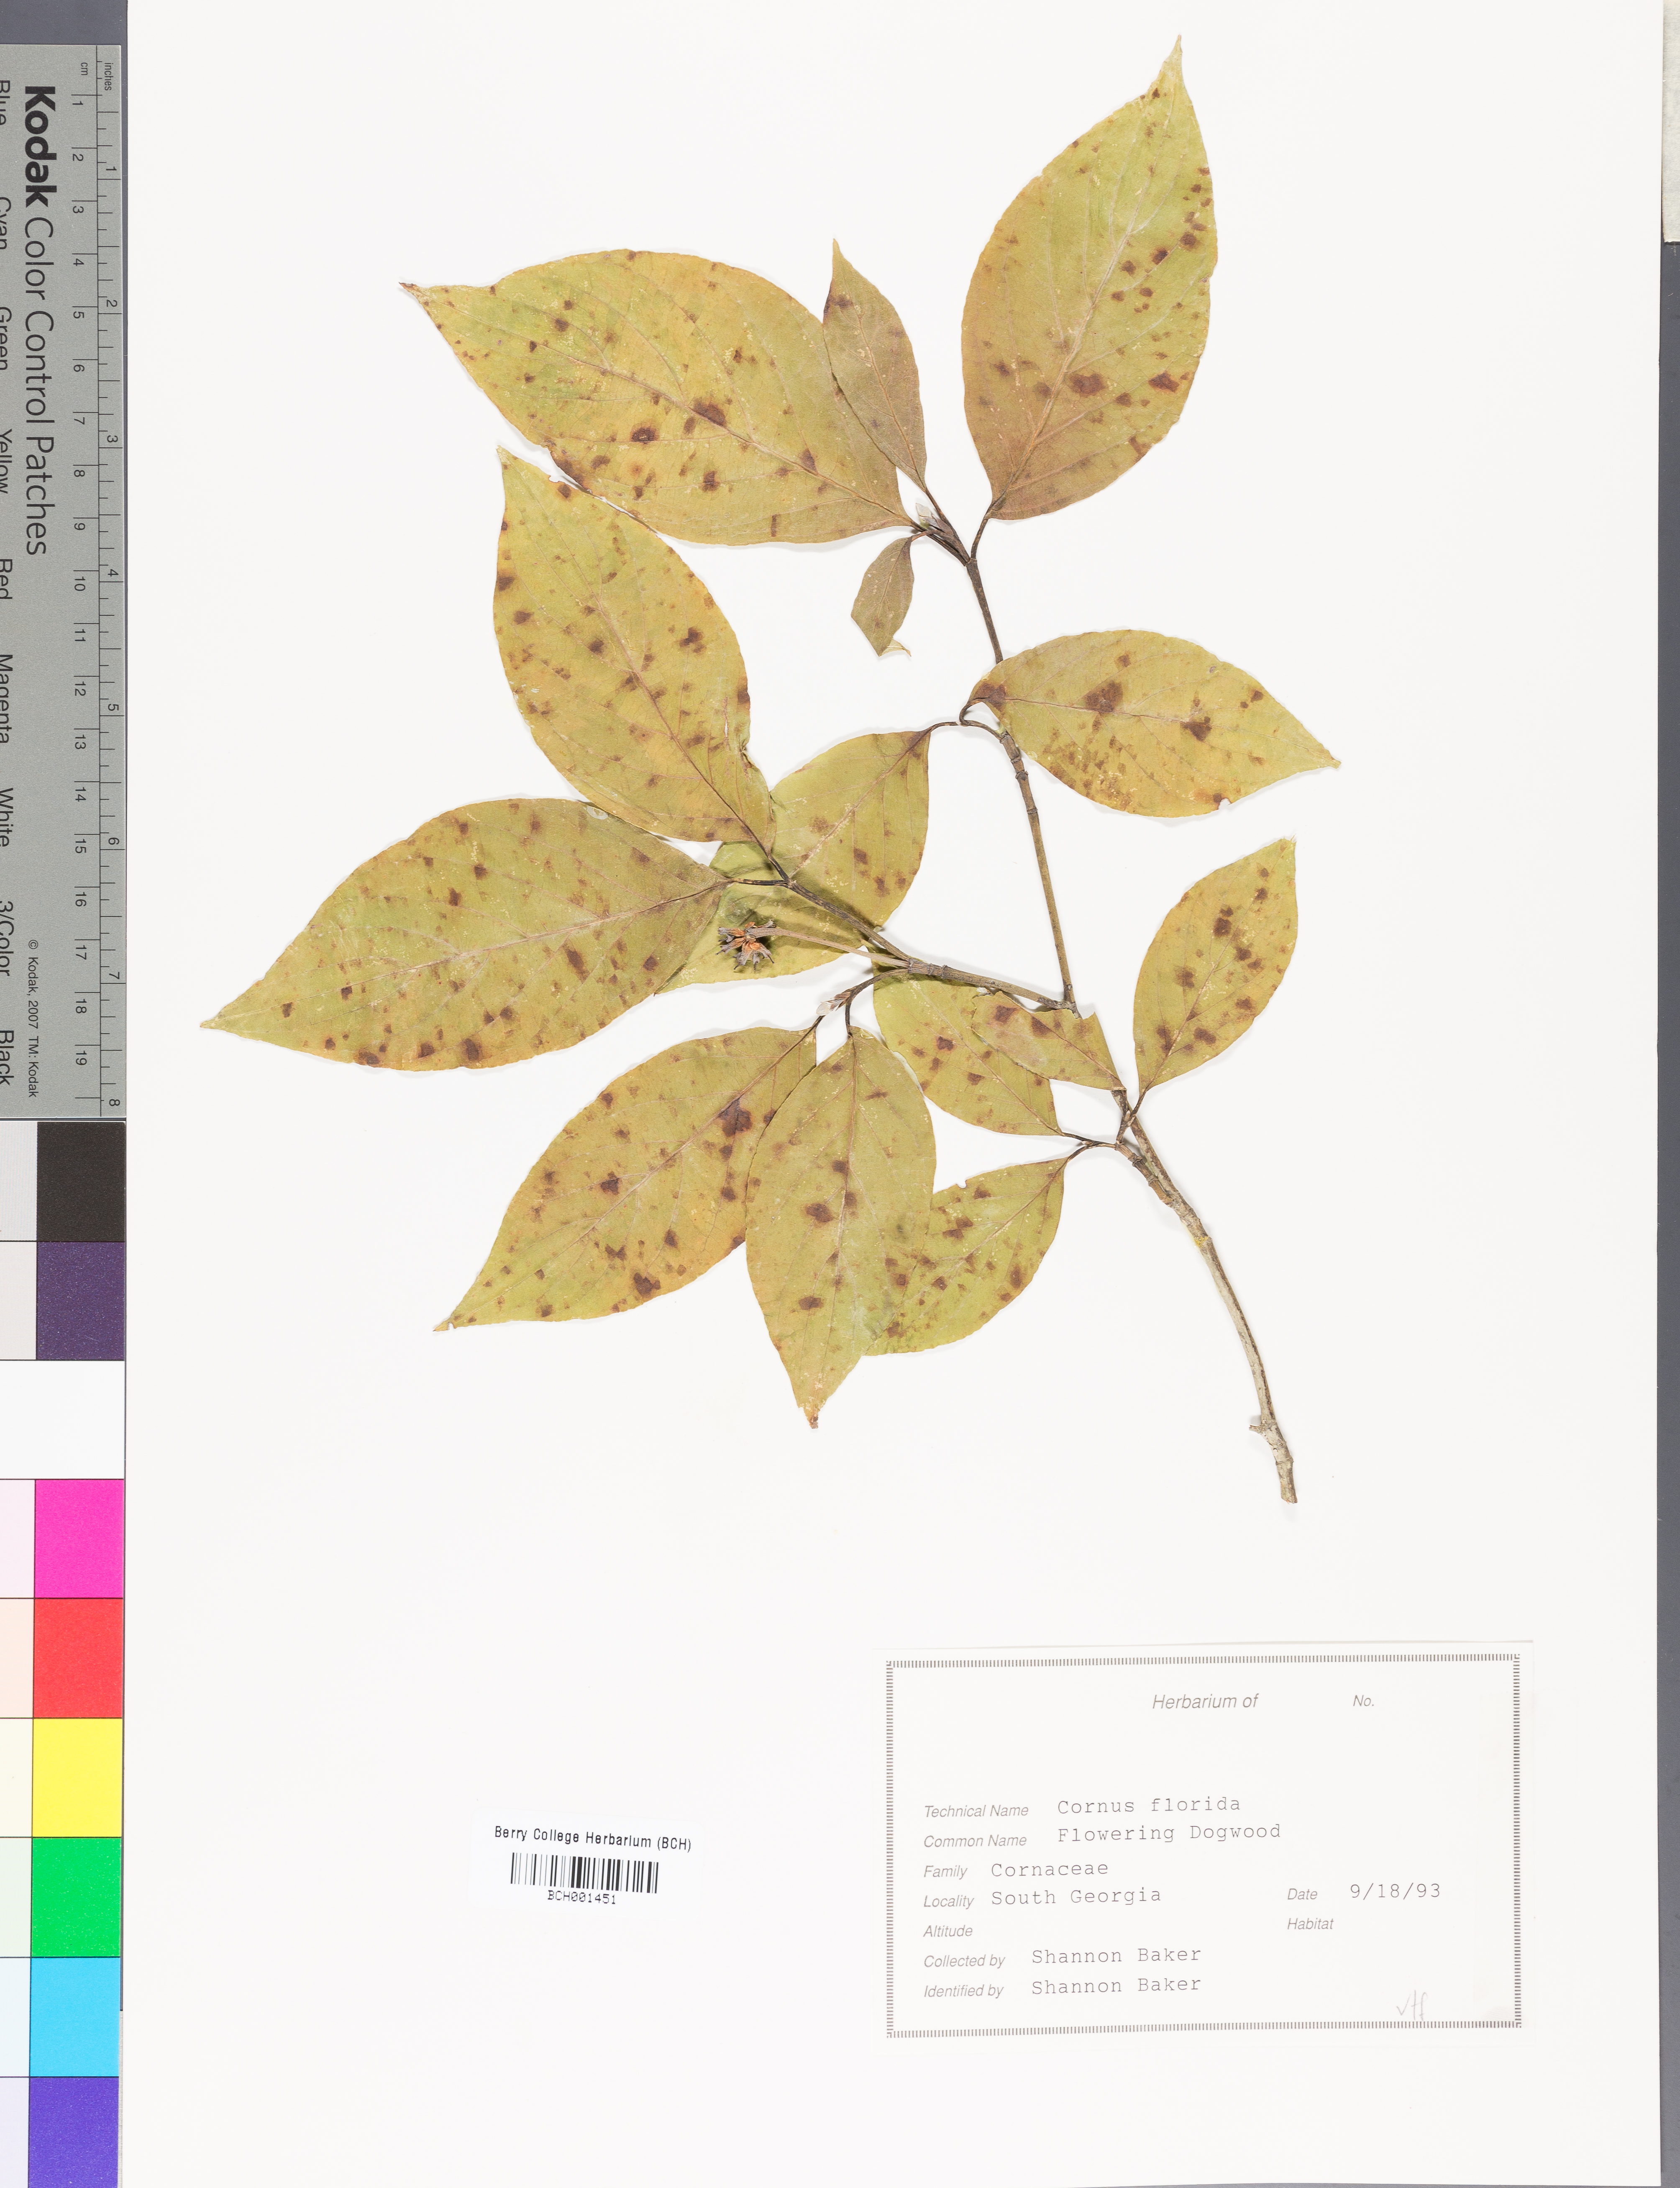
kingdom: Plantae
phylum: Tracheophyta
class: Magnoliopsida
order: Cornales
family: Cornaceae
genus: Cornus
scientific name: Cornus florida
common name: Flowering dogwood
